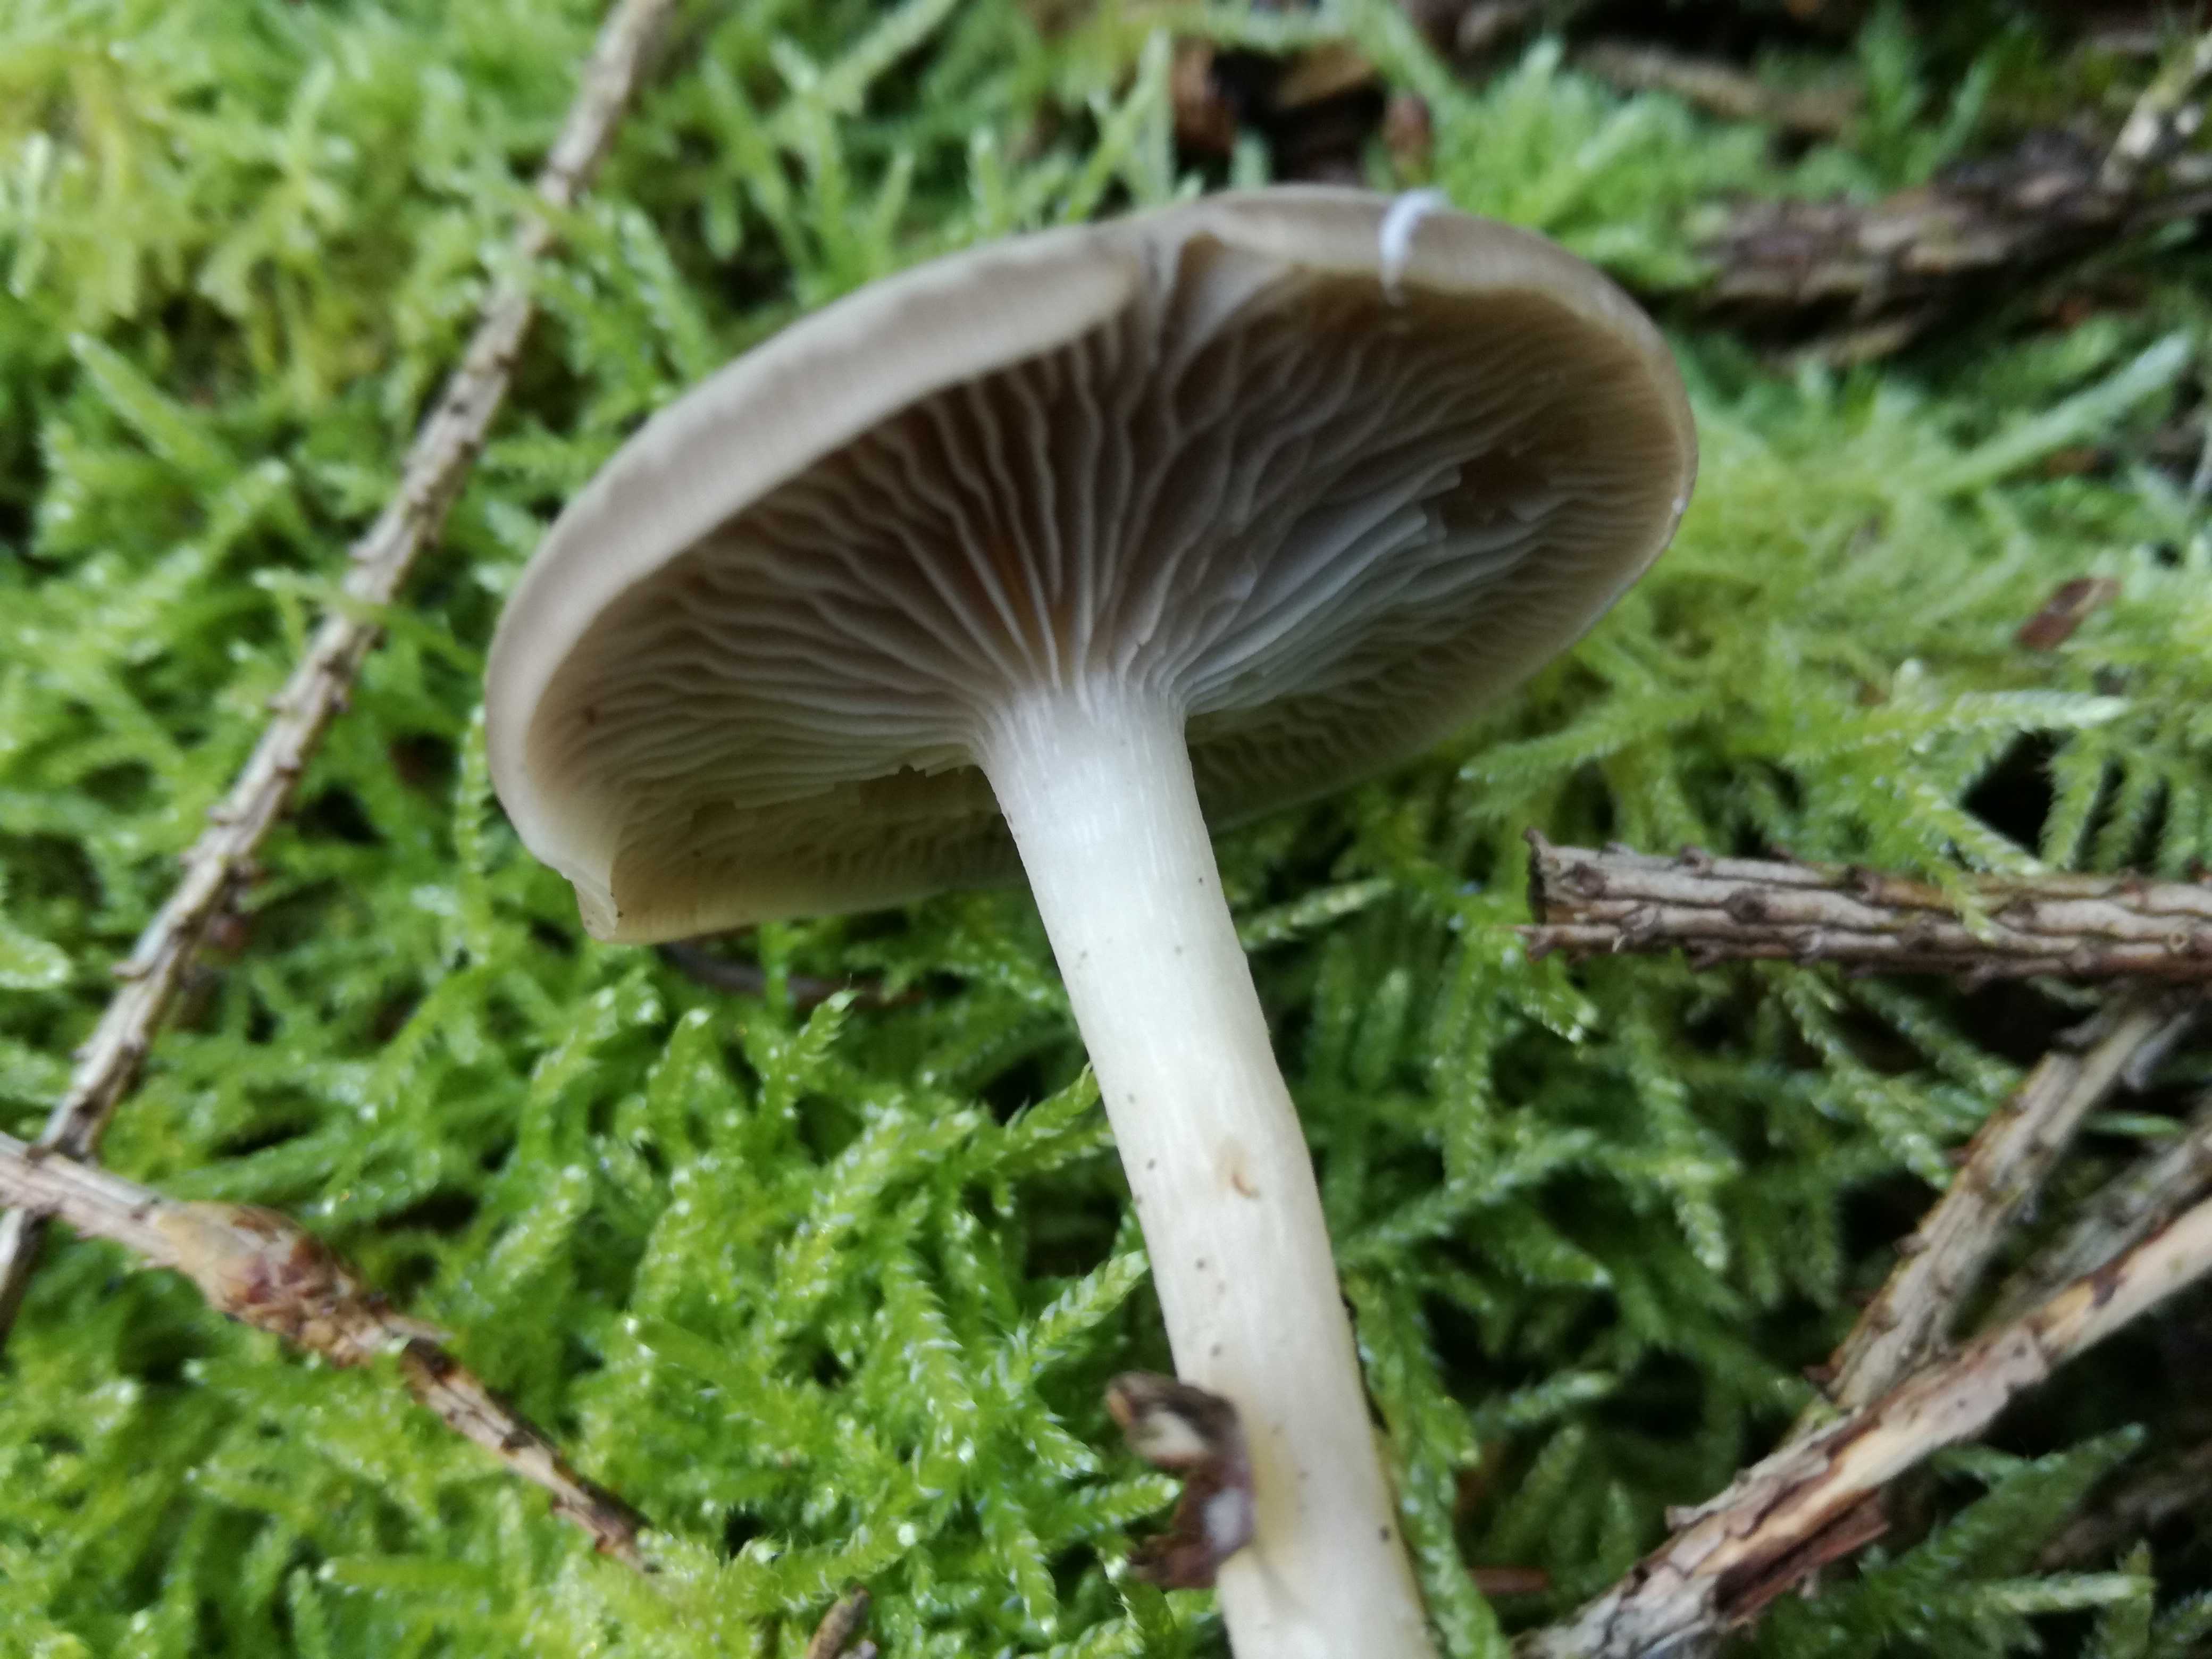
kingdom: Fungi
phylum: Basidiomycota
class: Agaricomycetes
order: Agaricales
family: Tricholomataceae
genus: Clitocybe
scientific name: Clitocybe
